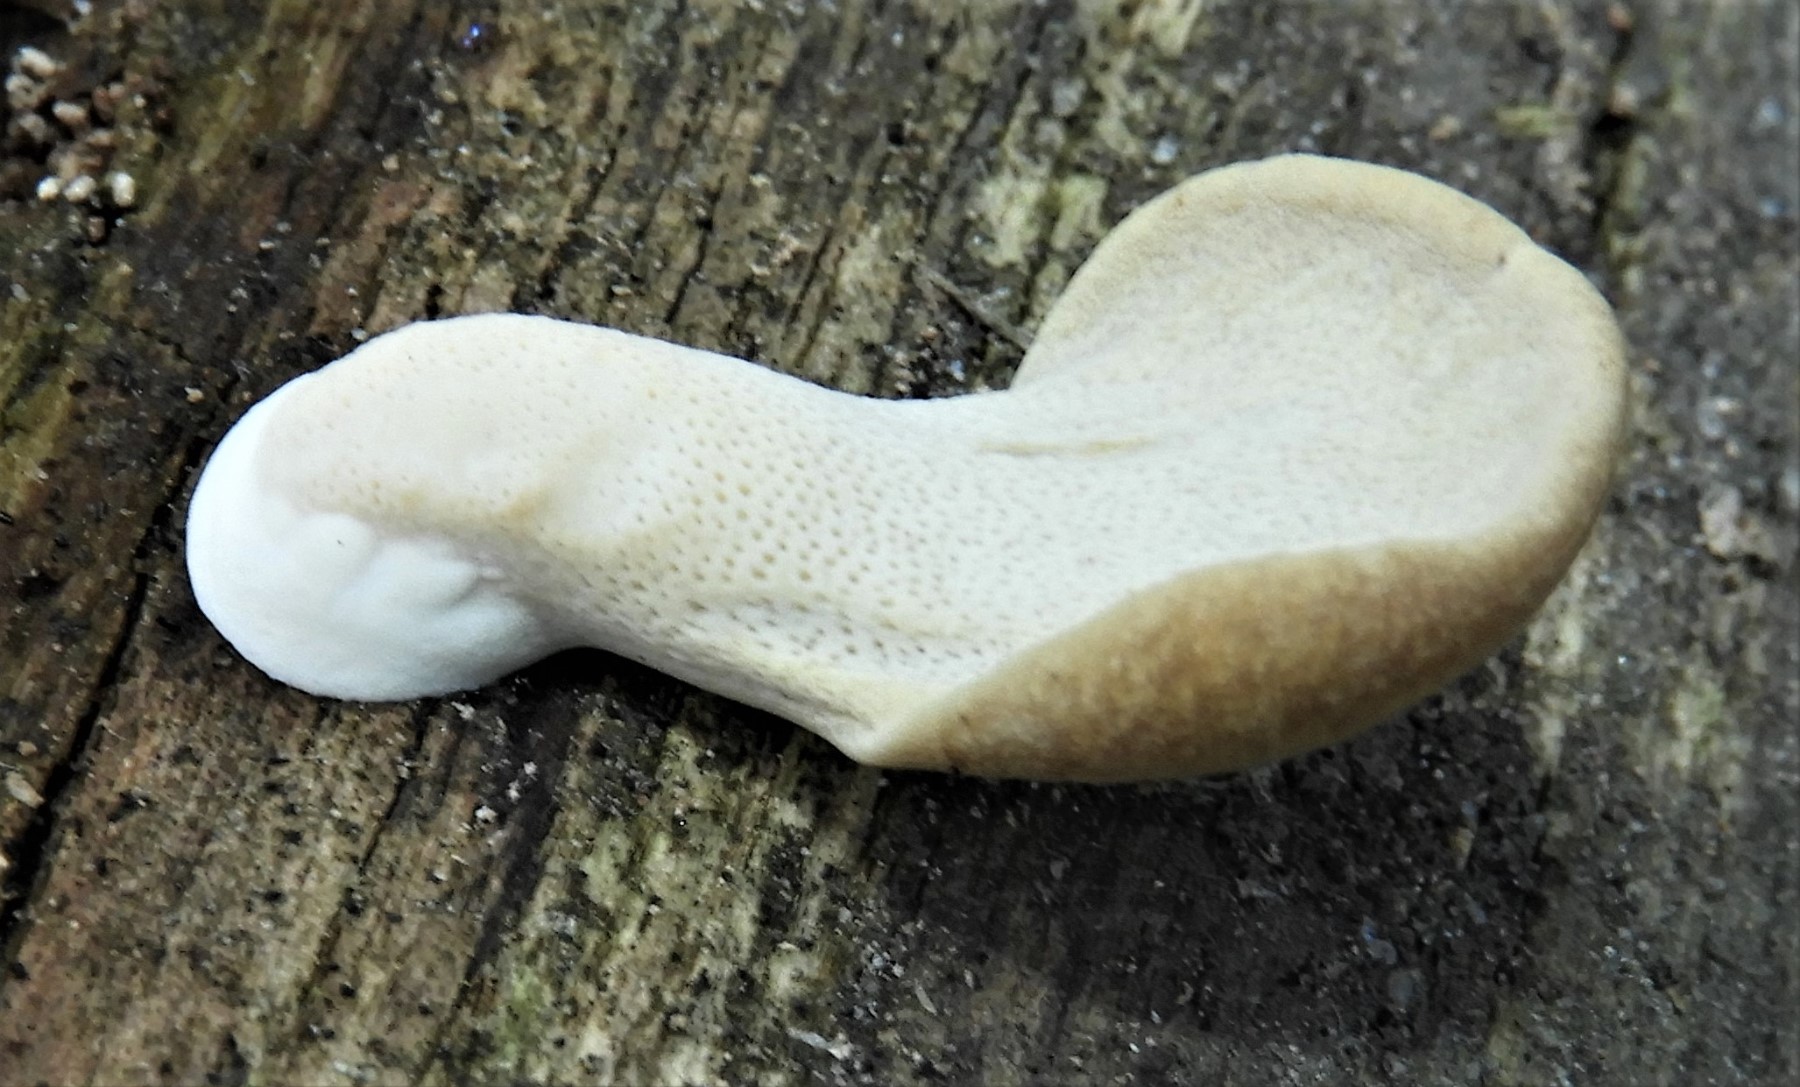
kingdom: Fungi
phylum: Basidiomycota
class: Agaricomycetes
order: Polyporales
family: Polyporaceae
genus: Cerioporus
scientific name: Cerioporus varius
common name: foranderlig stilkporesvamp
